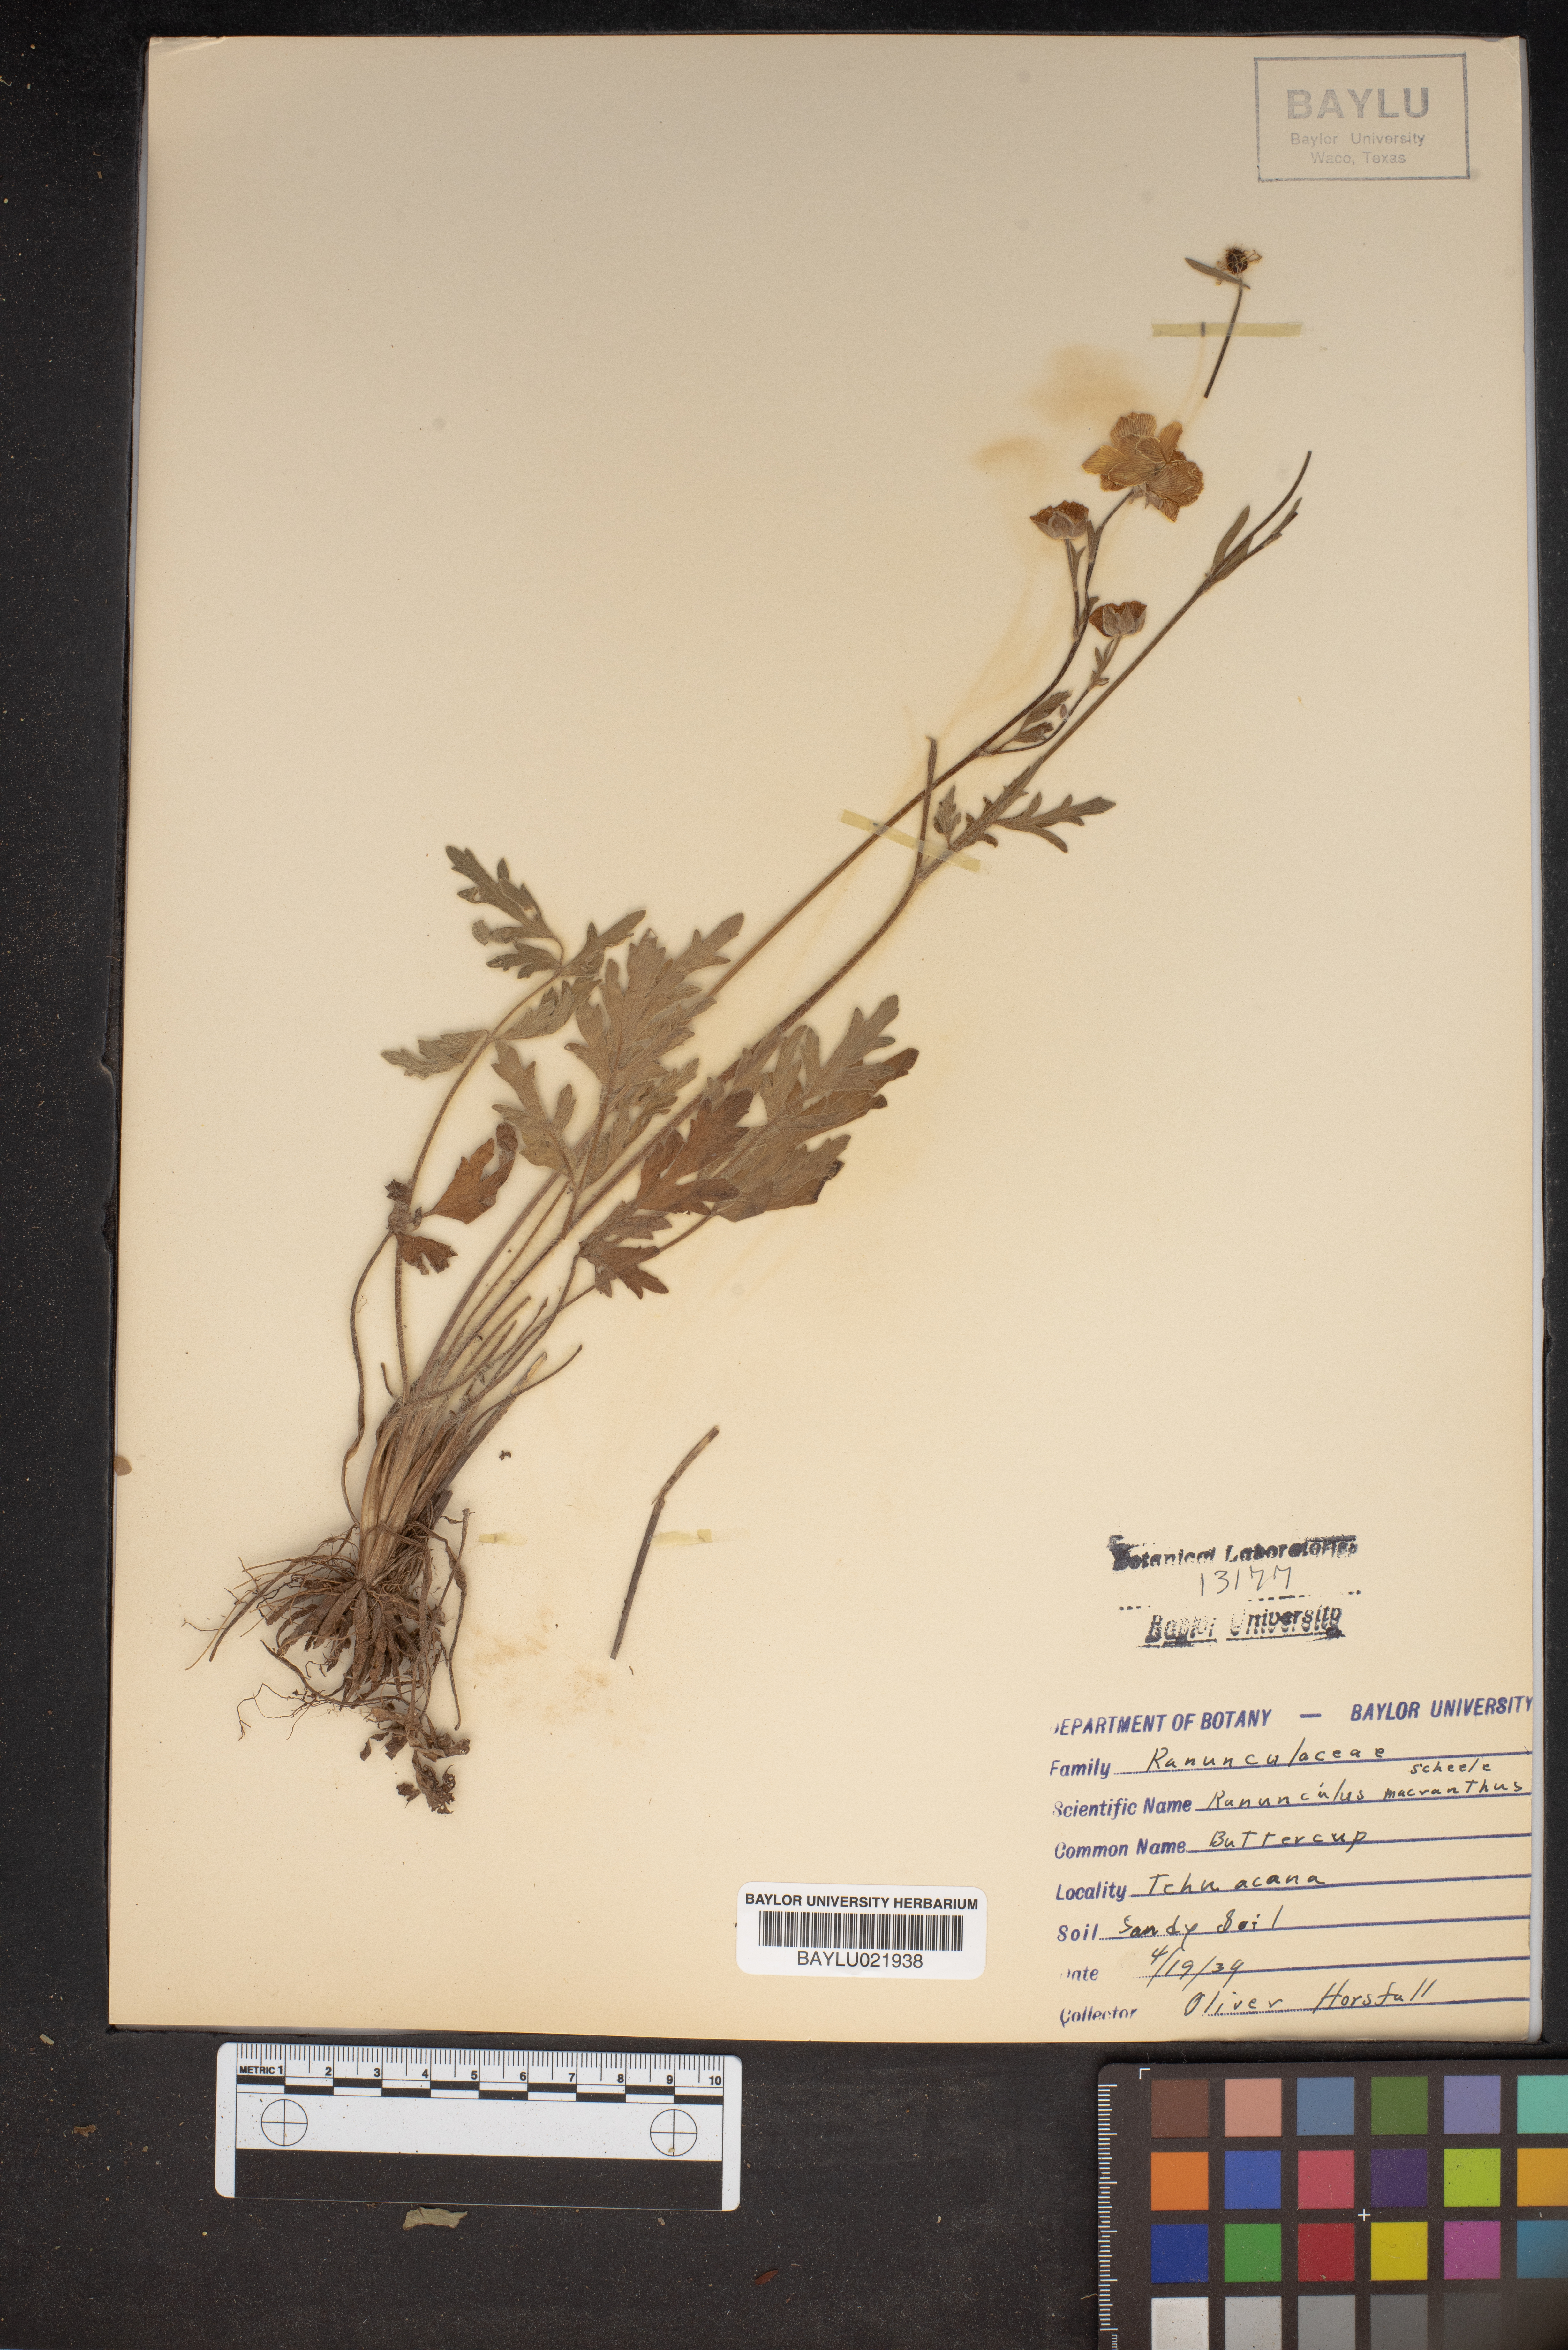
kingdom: Plantae
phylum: Tracheophyta
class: Magnoliopsida
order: Ranunculales
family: Ranunculaceae
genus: Ranunculus
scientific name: Ranunculus macranthus
